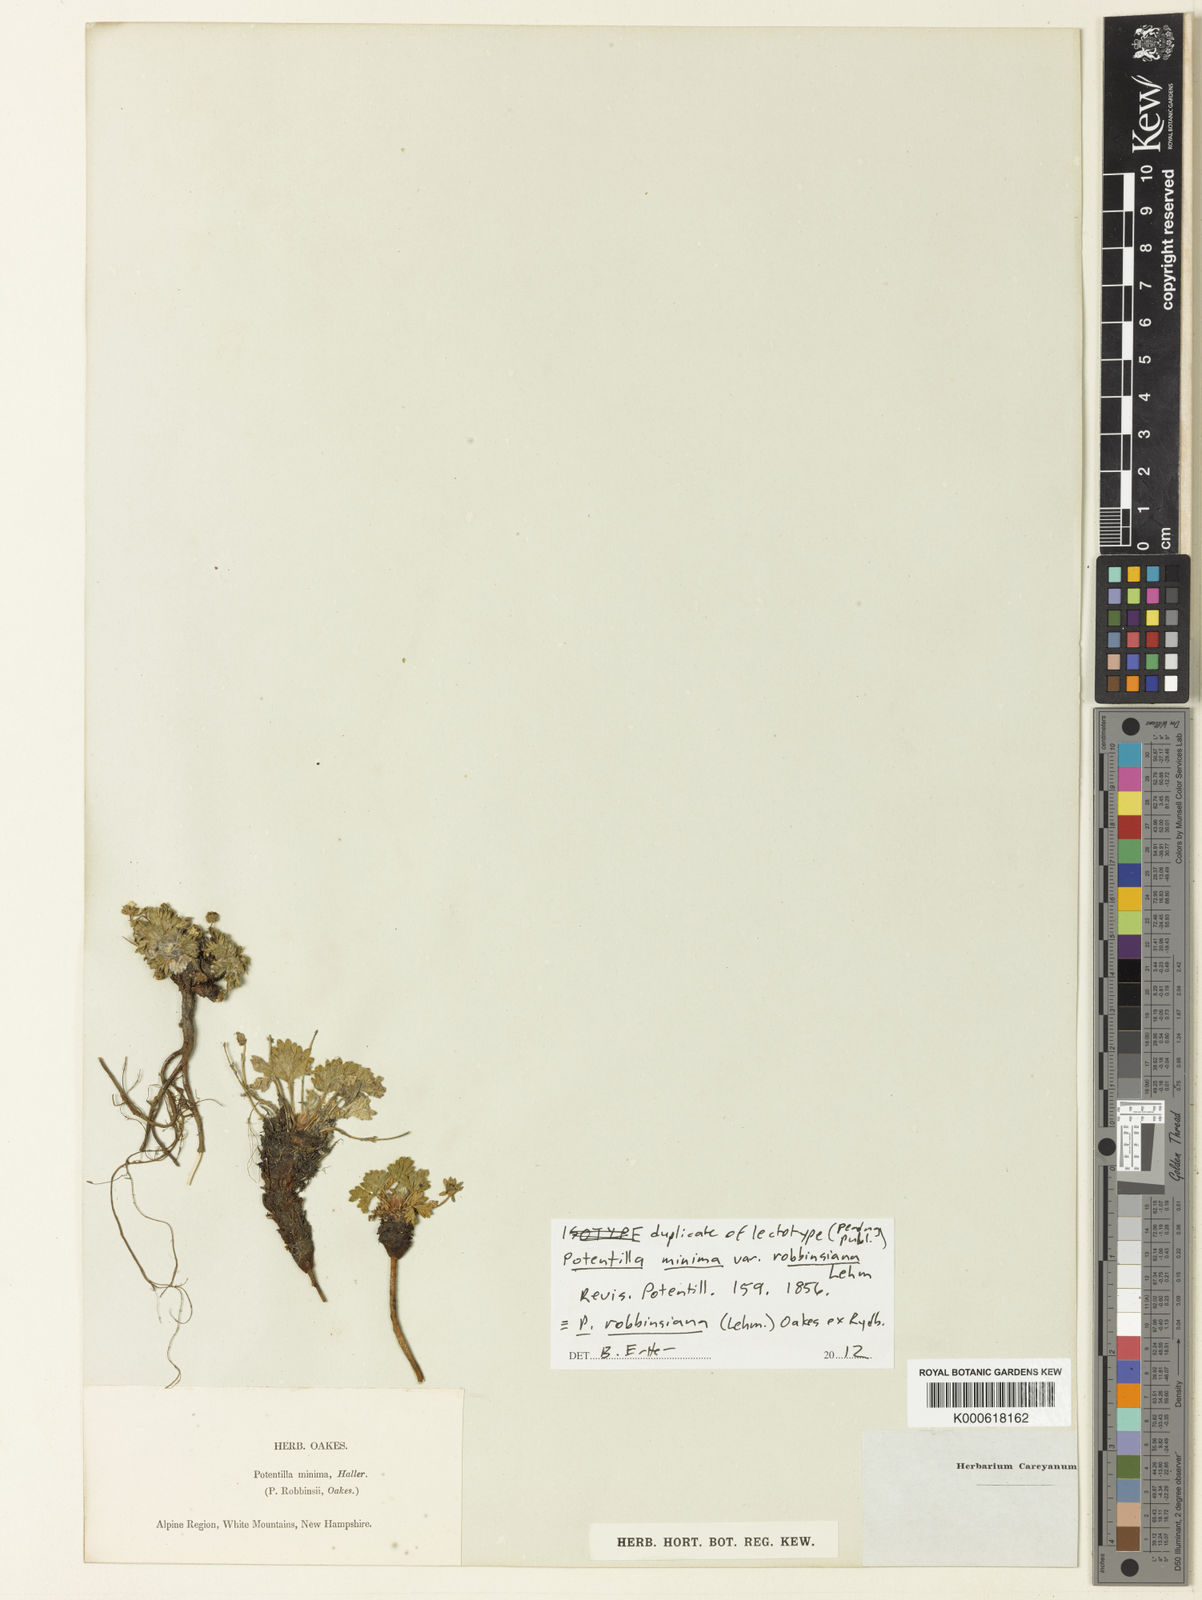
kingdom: Plantae
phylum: Tracheophyta
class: Magnoliopsida
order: Rosales
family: Rosaceae
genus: Potentilla
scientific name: Potentilla
